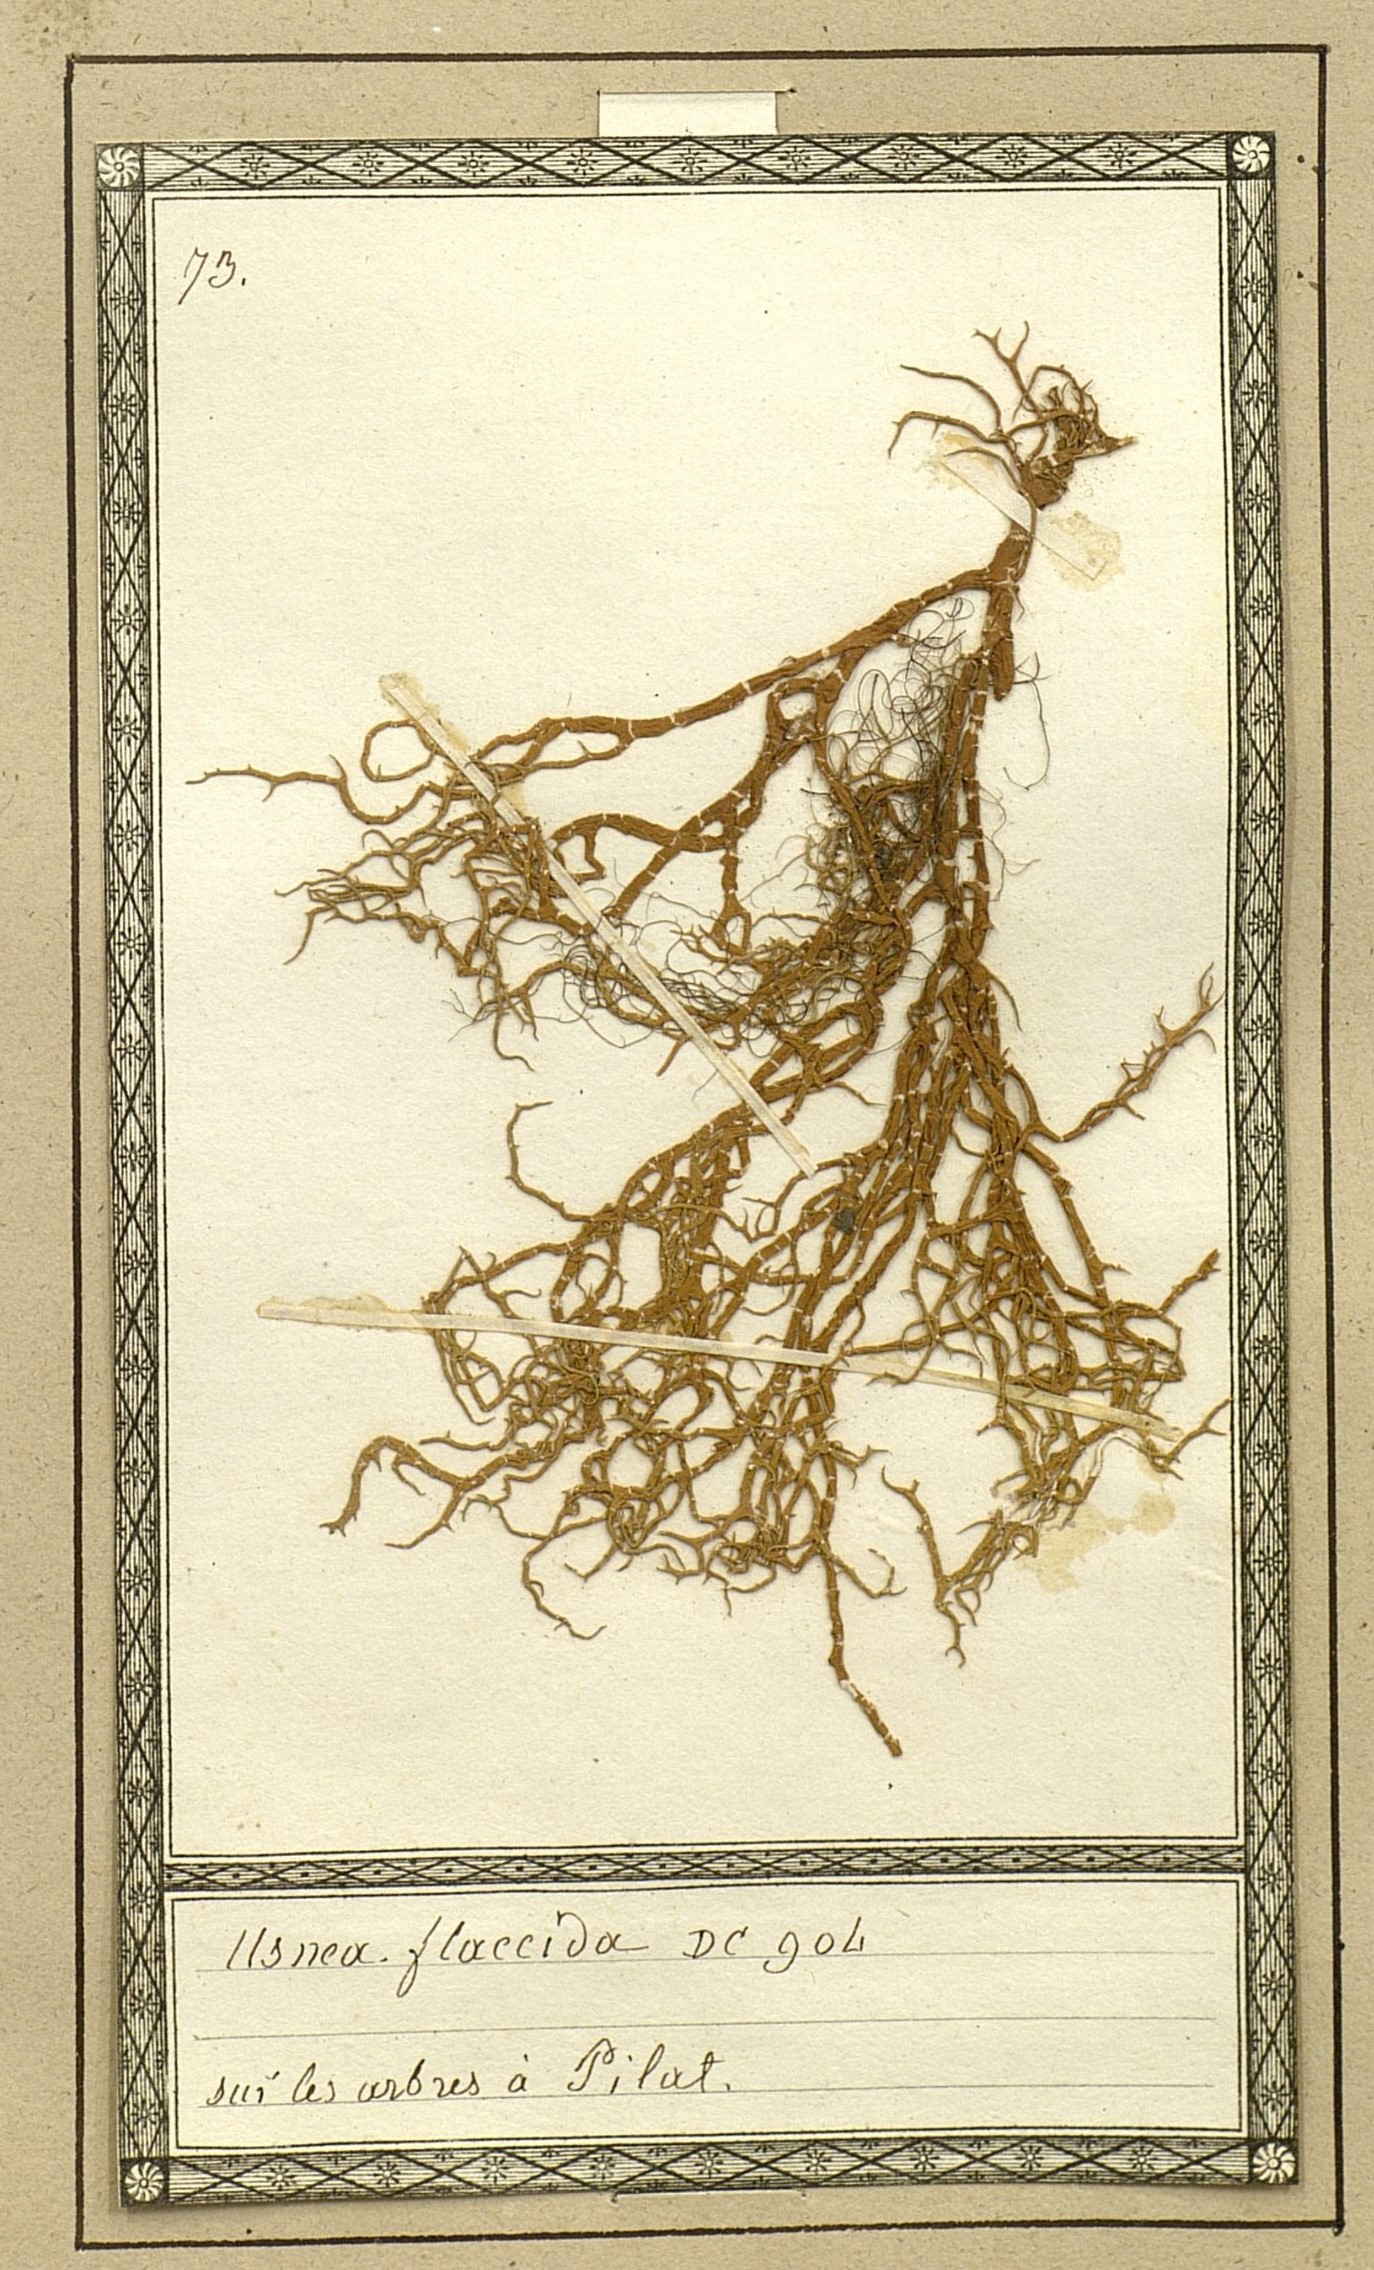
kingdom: Fungi
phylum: Ascomycota
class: Lecanoromycetes
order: Lecanorales
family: Parmeliaceae
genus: Xanthoparmelia
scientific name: Xanthoparmelia amplexula
